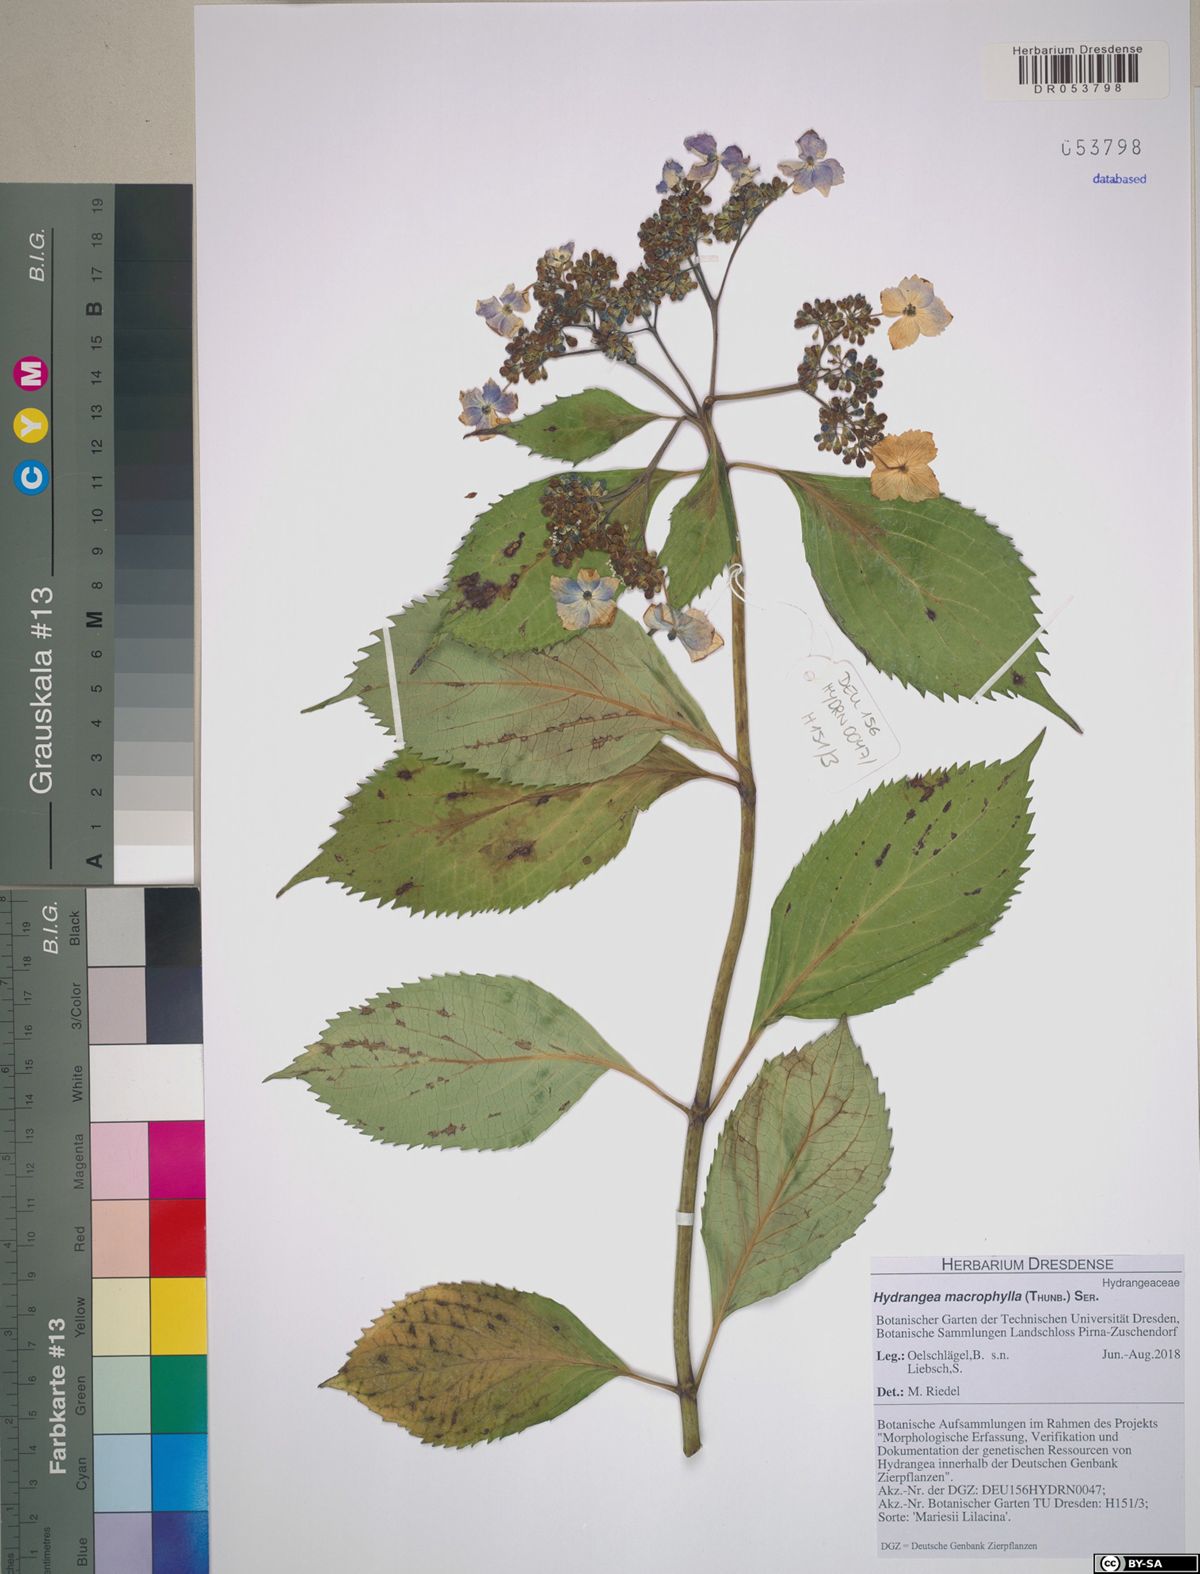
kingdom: Plantae
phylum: Tracheophyta
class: Magnoliopsida
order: Cornales
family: Hydrangeaceae
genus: Hydrangea
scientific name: Hydrangea macrophylla
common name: Hydrangea
